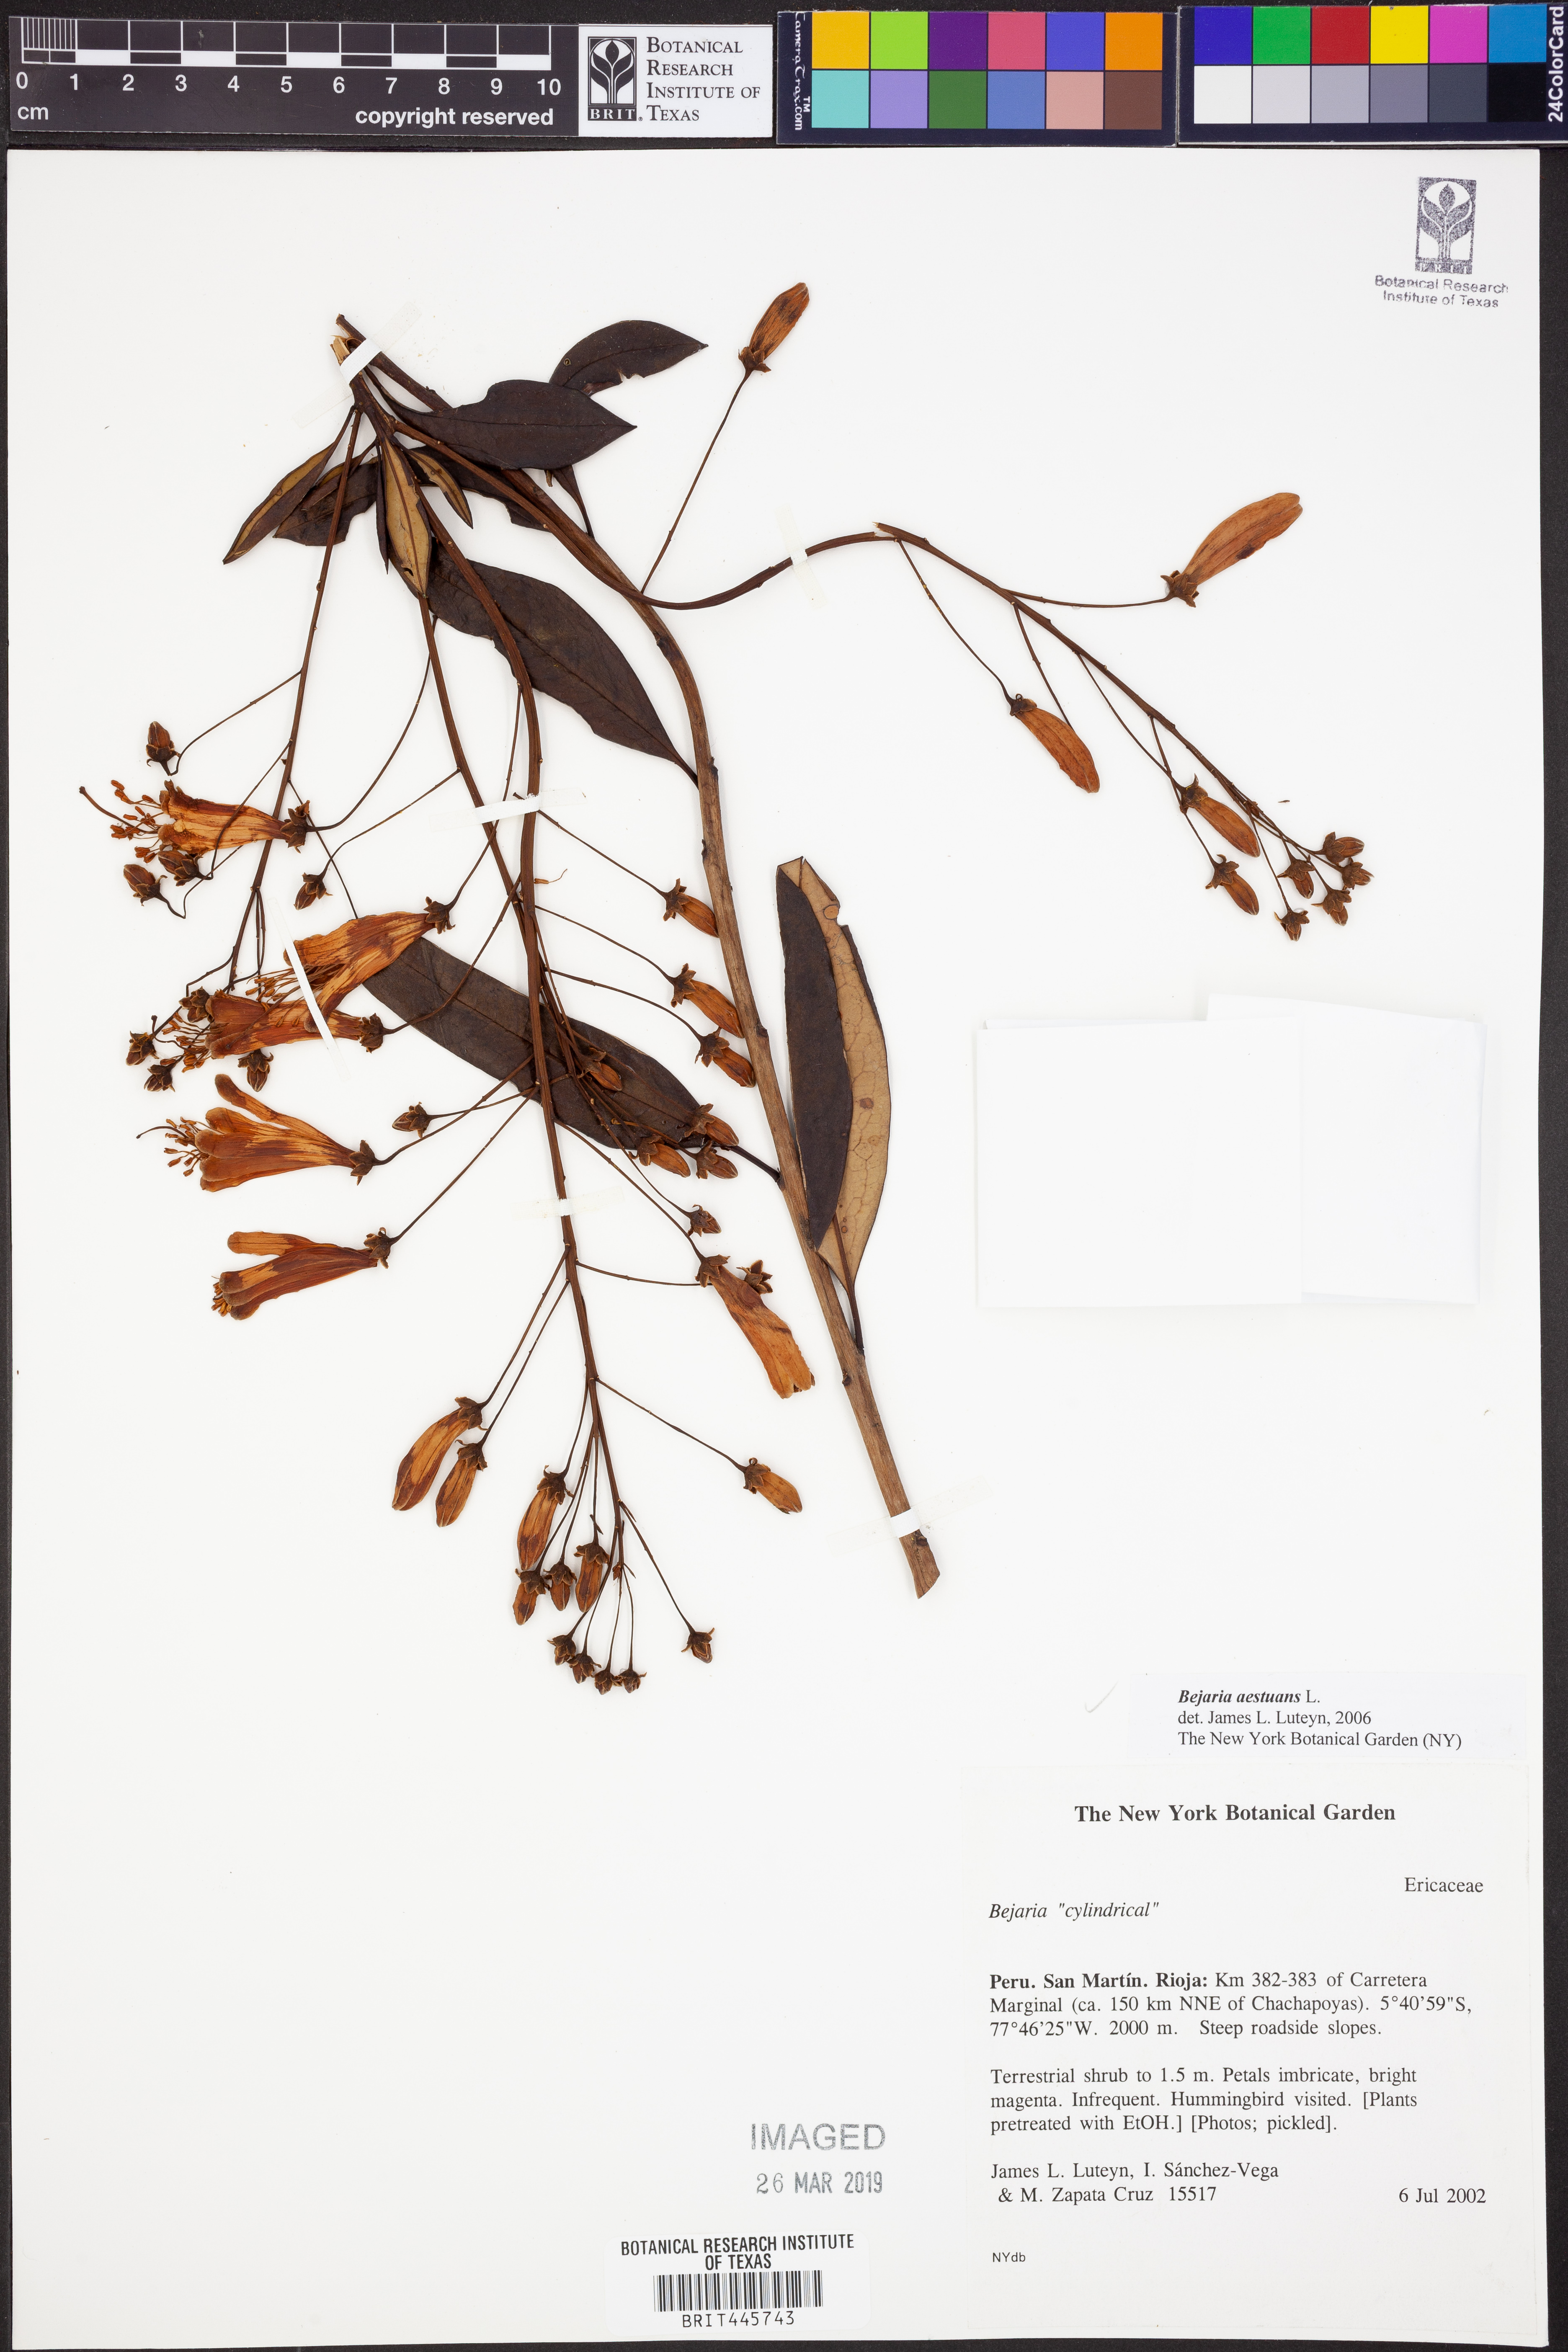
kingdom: Plantae
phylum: Tracheophyta
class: Magnoliopsida
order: Ericales
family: Ericaceae
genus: Bejaria
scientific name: Bejaria aestuans
